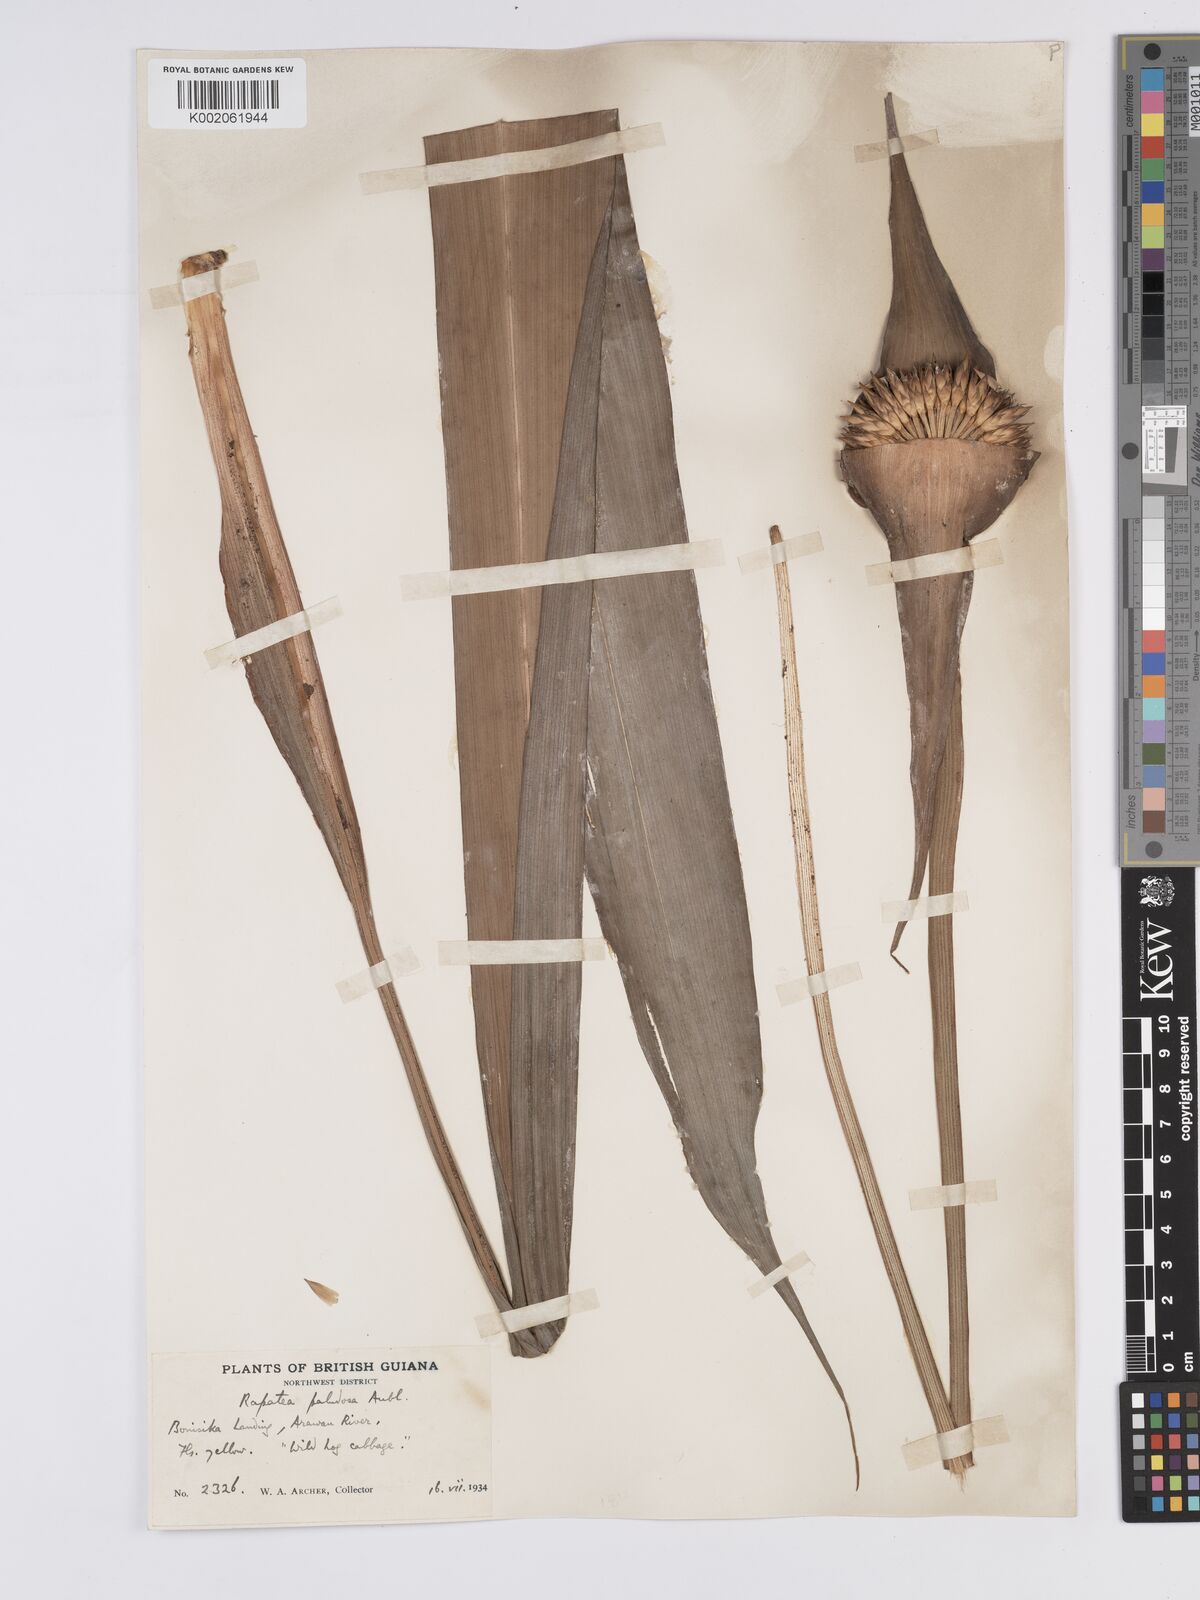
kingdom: Plantae
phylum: Tracheophyta
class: Liliopsida
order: Poales
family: Rapateaceae
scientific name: Rapateaceae
